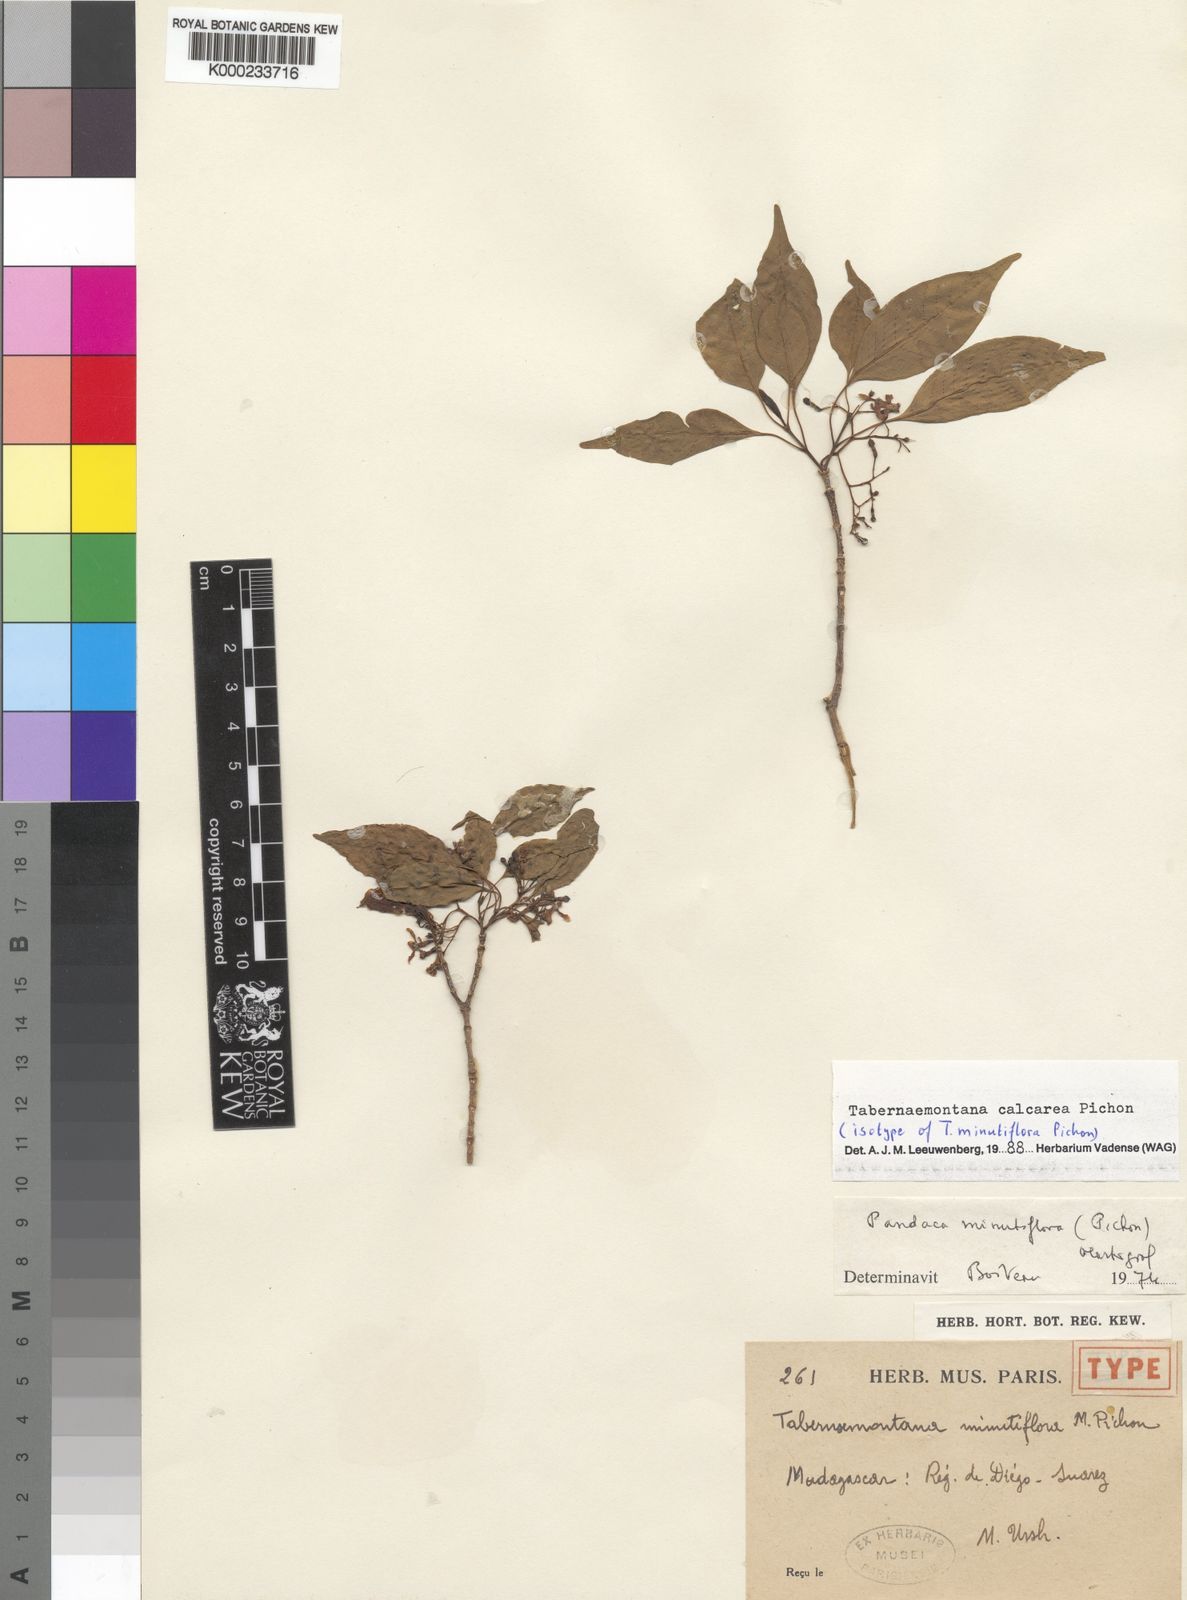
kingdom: Plantae
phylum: Tracheophyta
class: Magnoliopsida
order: Gentianales
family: Apocynaceae
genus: Tabernaemontana
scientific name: Tabernaemontana calcarea
